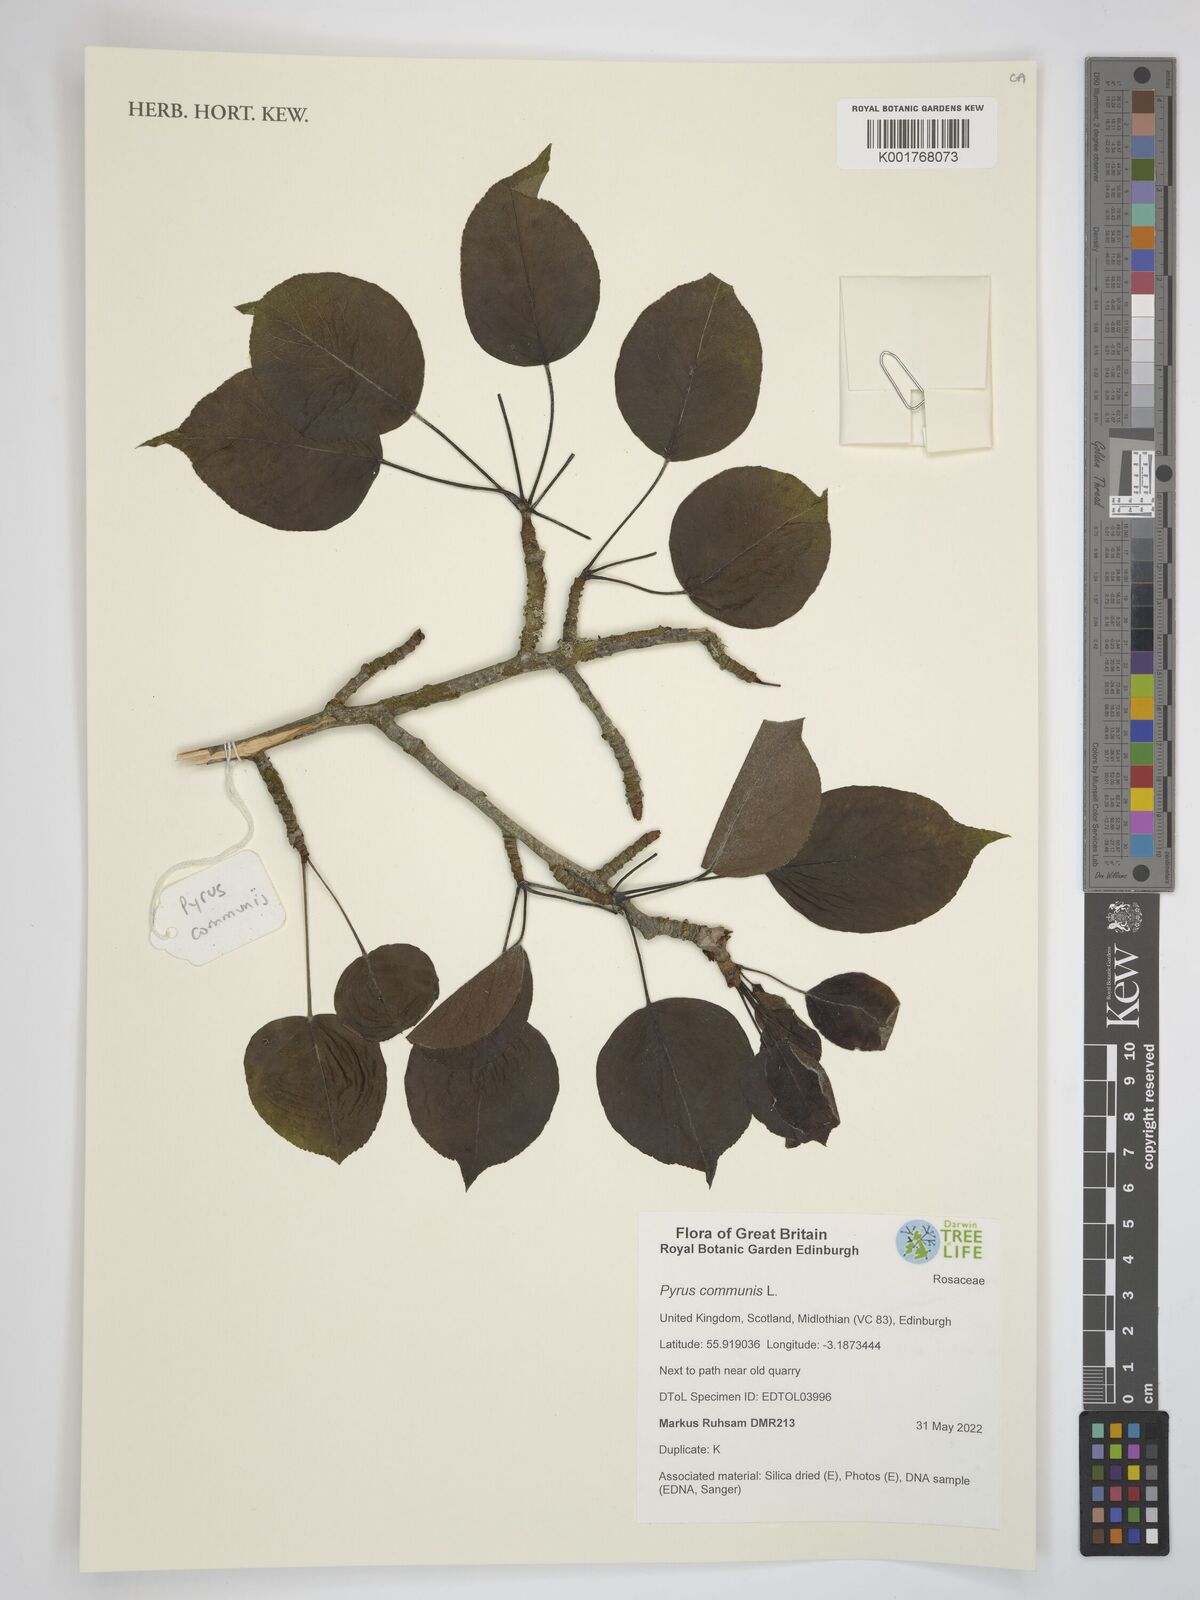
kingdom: Plantae
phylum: Tracheophyta
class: Magnoliopsida
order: Rosales
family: Rosaceae
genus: Pyrus
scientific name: Pyrus communis
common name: Pear
